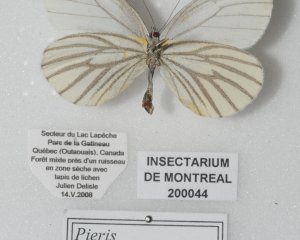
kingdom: Animalia
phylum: Arthropoda
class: Insecta
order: Lepidoptera
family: Pieridae
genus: Pieris
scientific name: Pieris oleracea
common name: Mustard White
